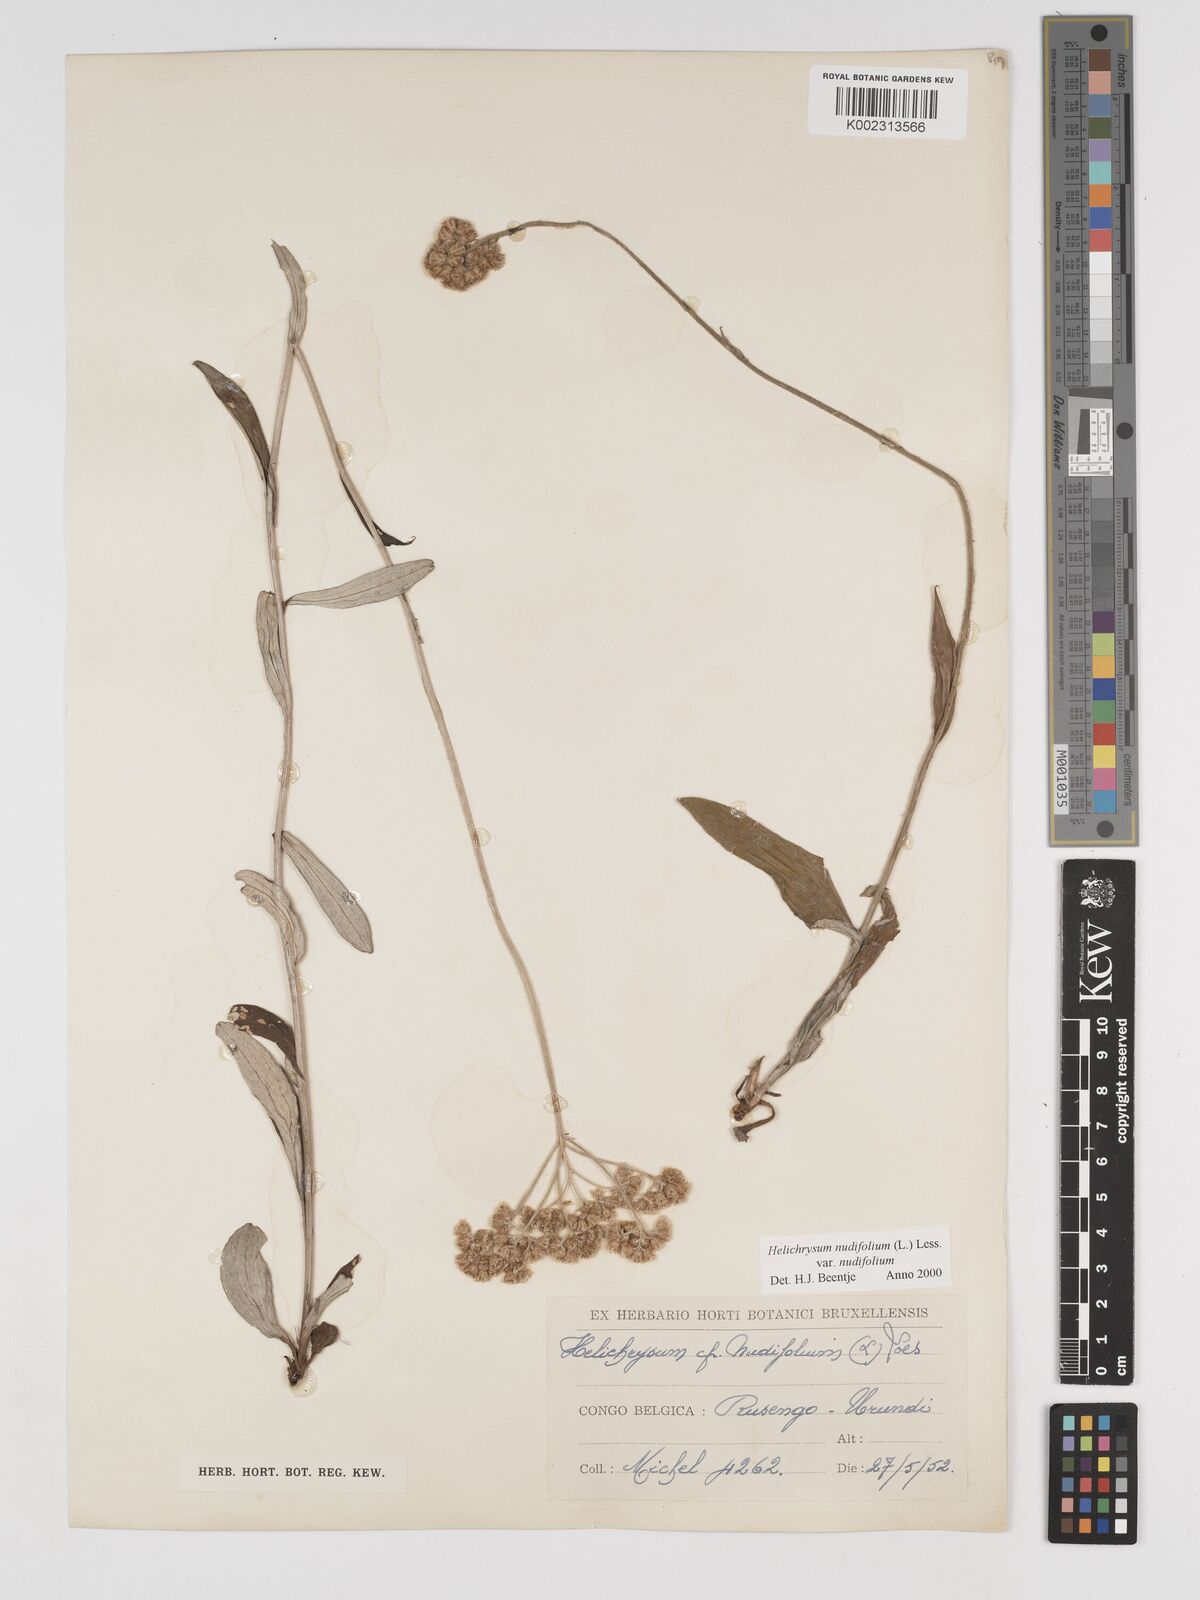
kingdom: Plantae
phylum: Tracheophyta
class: Magnoliopsida
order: Asterales
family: Asteraceae
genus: Helichrysum
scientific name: Helichrysum nudifolium
